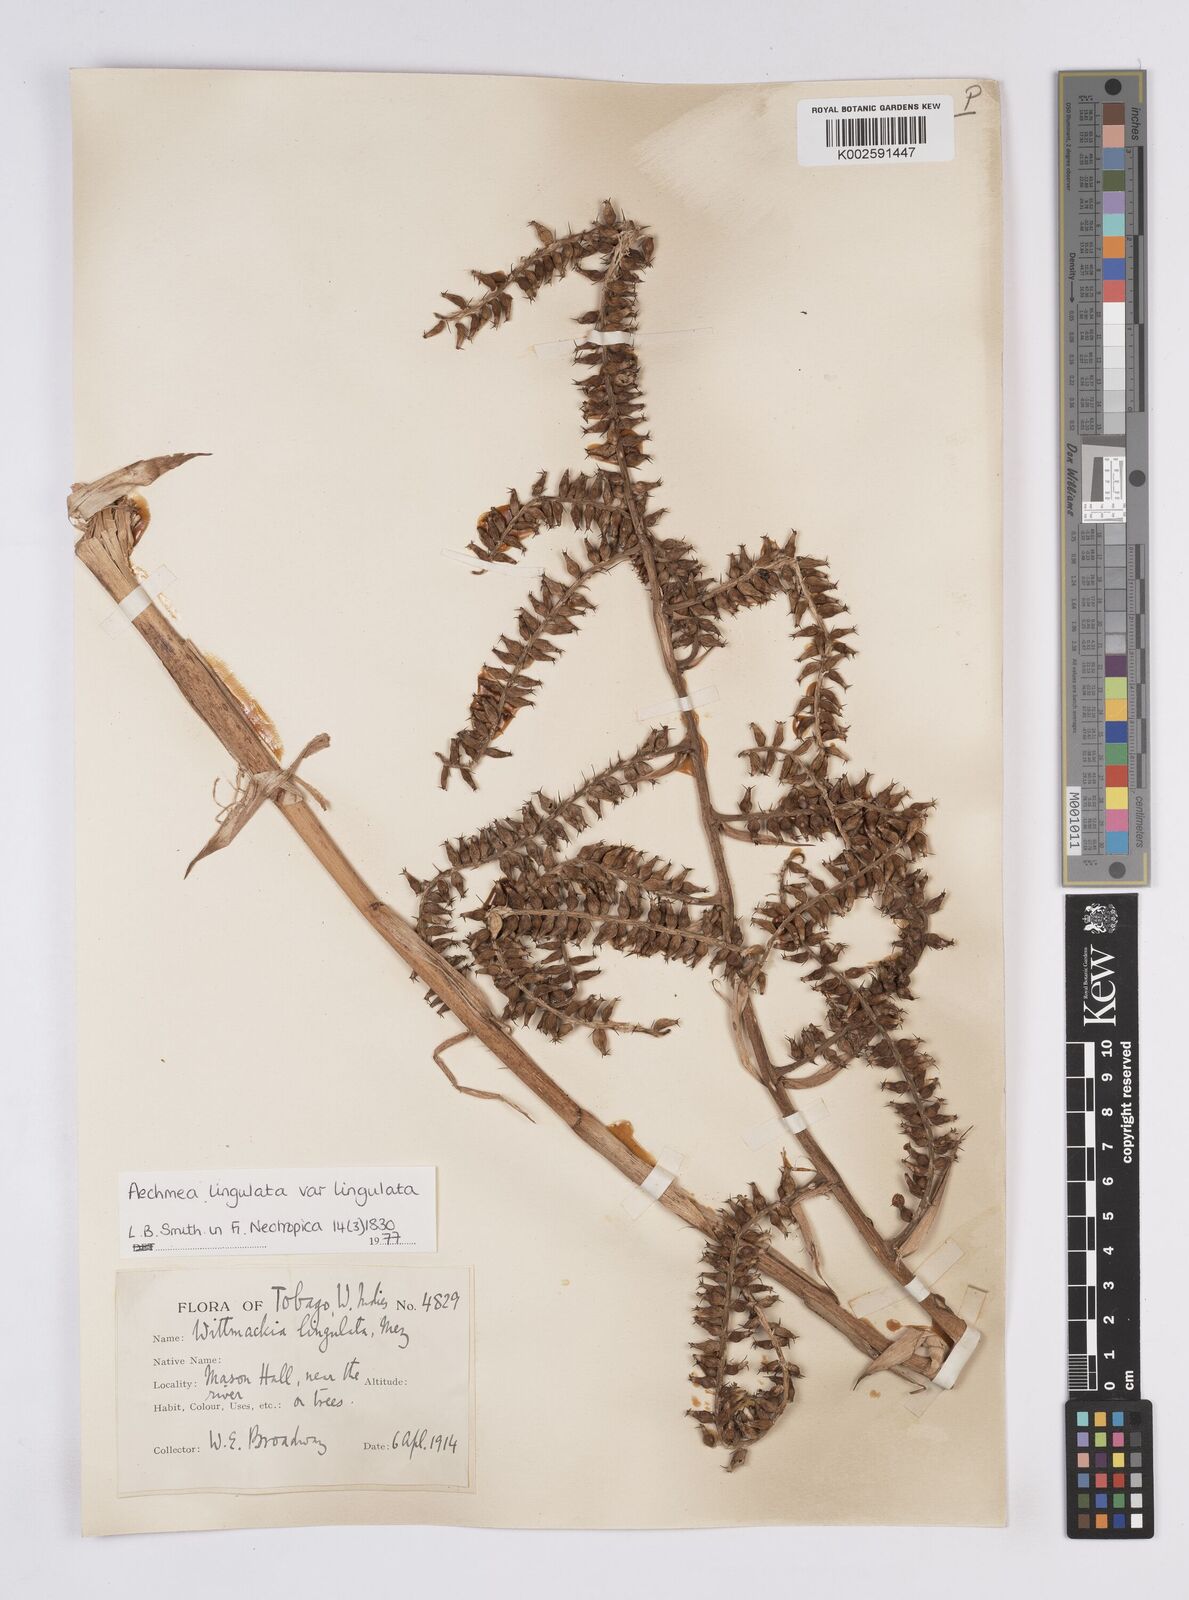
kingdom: Plantae
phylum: Tracheophyta
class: Liliopsida
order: Poales
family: Bromeliaceae
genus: Wittmackia
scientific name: Wittmackia lingulata
